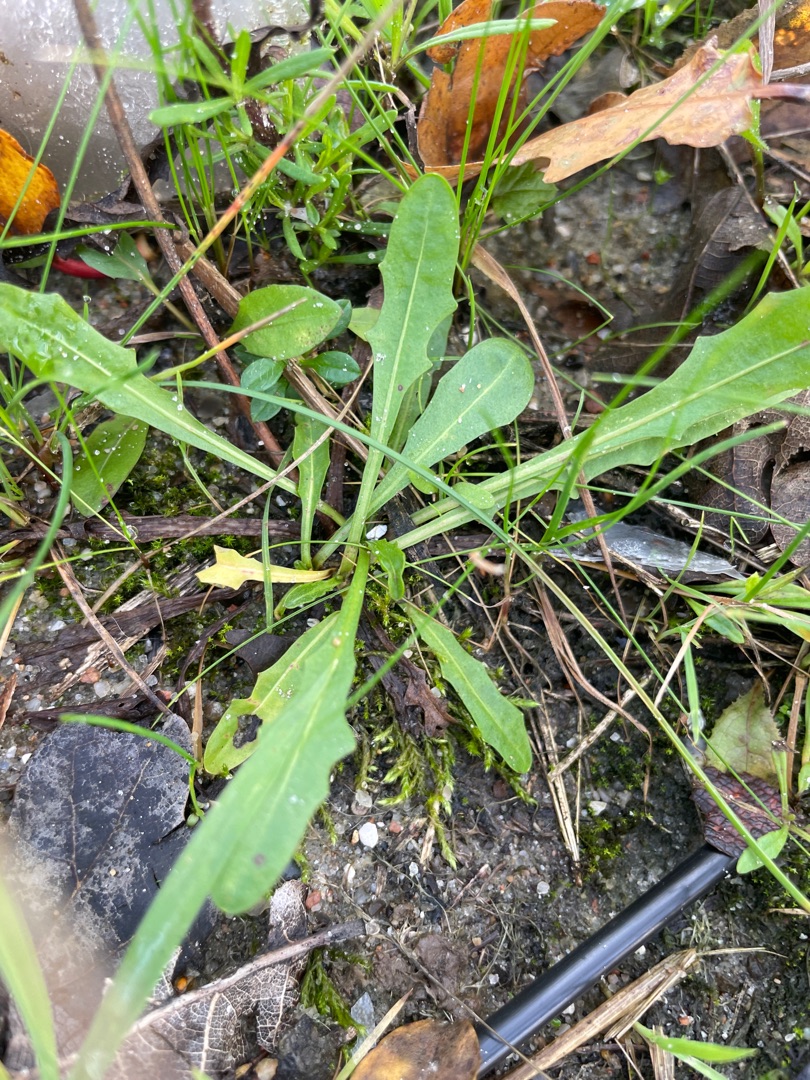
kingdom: Plantae
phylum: Tracheophyta
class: Magnoliopsida
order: Asterales
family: Asteraceae
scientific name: Asteraceae
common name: Kurvblomstfamilien
